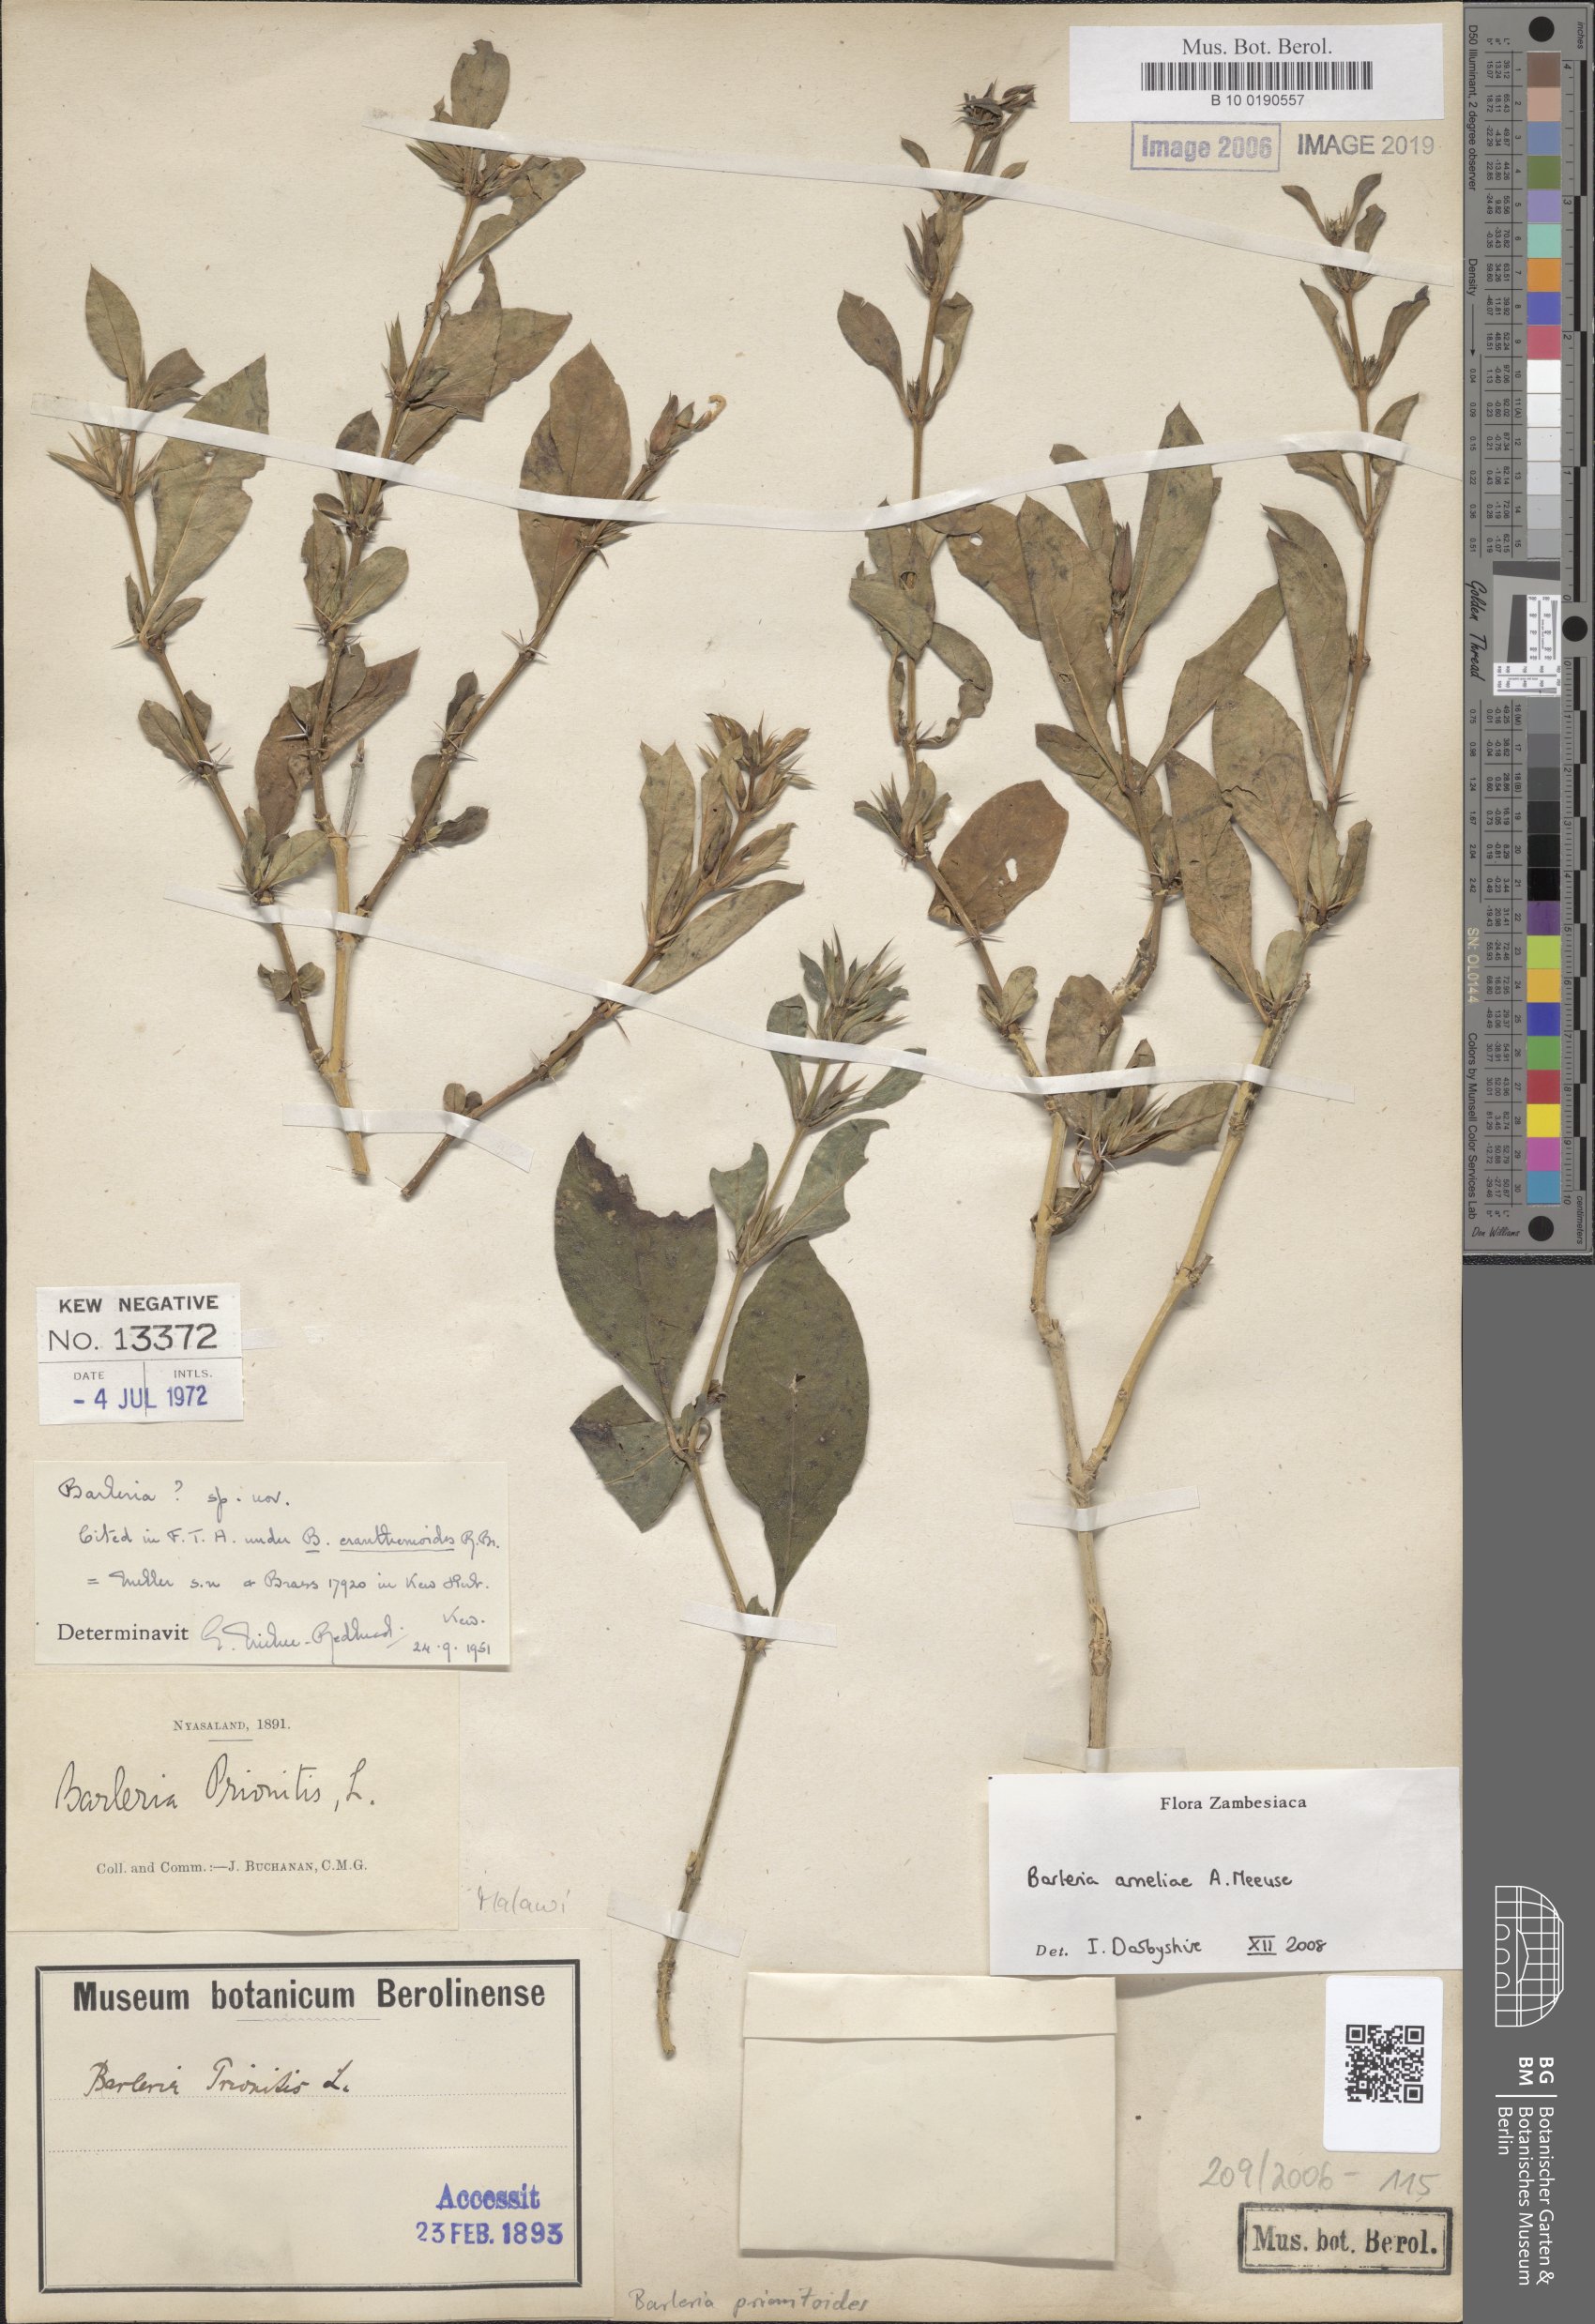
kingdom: Plantae
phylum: Tracheophyta
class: Magnoliopsida
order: Lamiales
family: Acanthaceae
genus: Barleria
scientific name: Barleria ameliae
